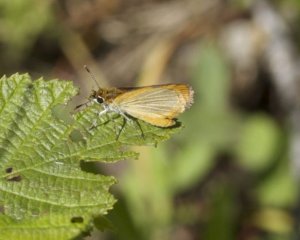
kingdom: Animalia
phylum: Arthropoda
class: Insecta
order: Lepidoptera
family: Hesperiidae
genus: Ancyloxypha
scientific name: Ancyloxypha numitor
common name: Least Skipper
